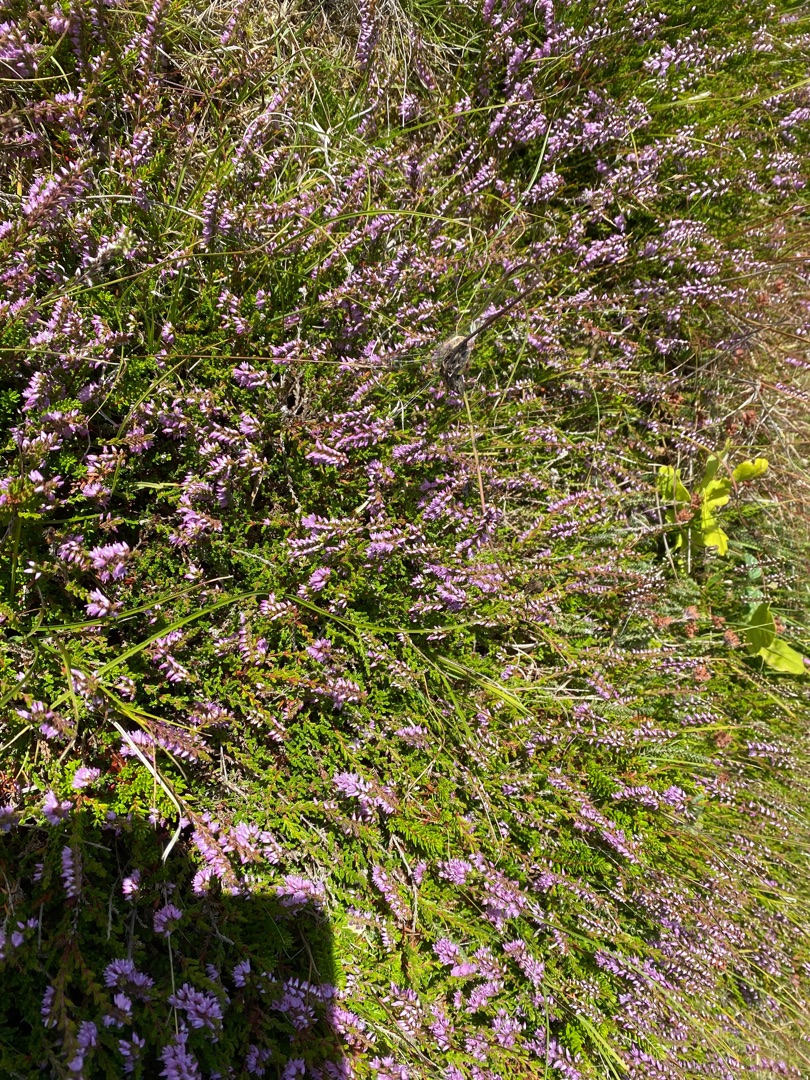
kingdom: Plantae
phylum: Tracheophyta
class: Magnoliopsida
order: Ericales
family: Ericaceae
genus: Calluna
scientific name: Calluna vulgaris
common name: Hedelyng
